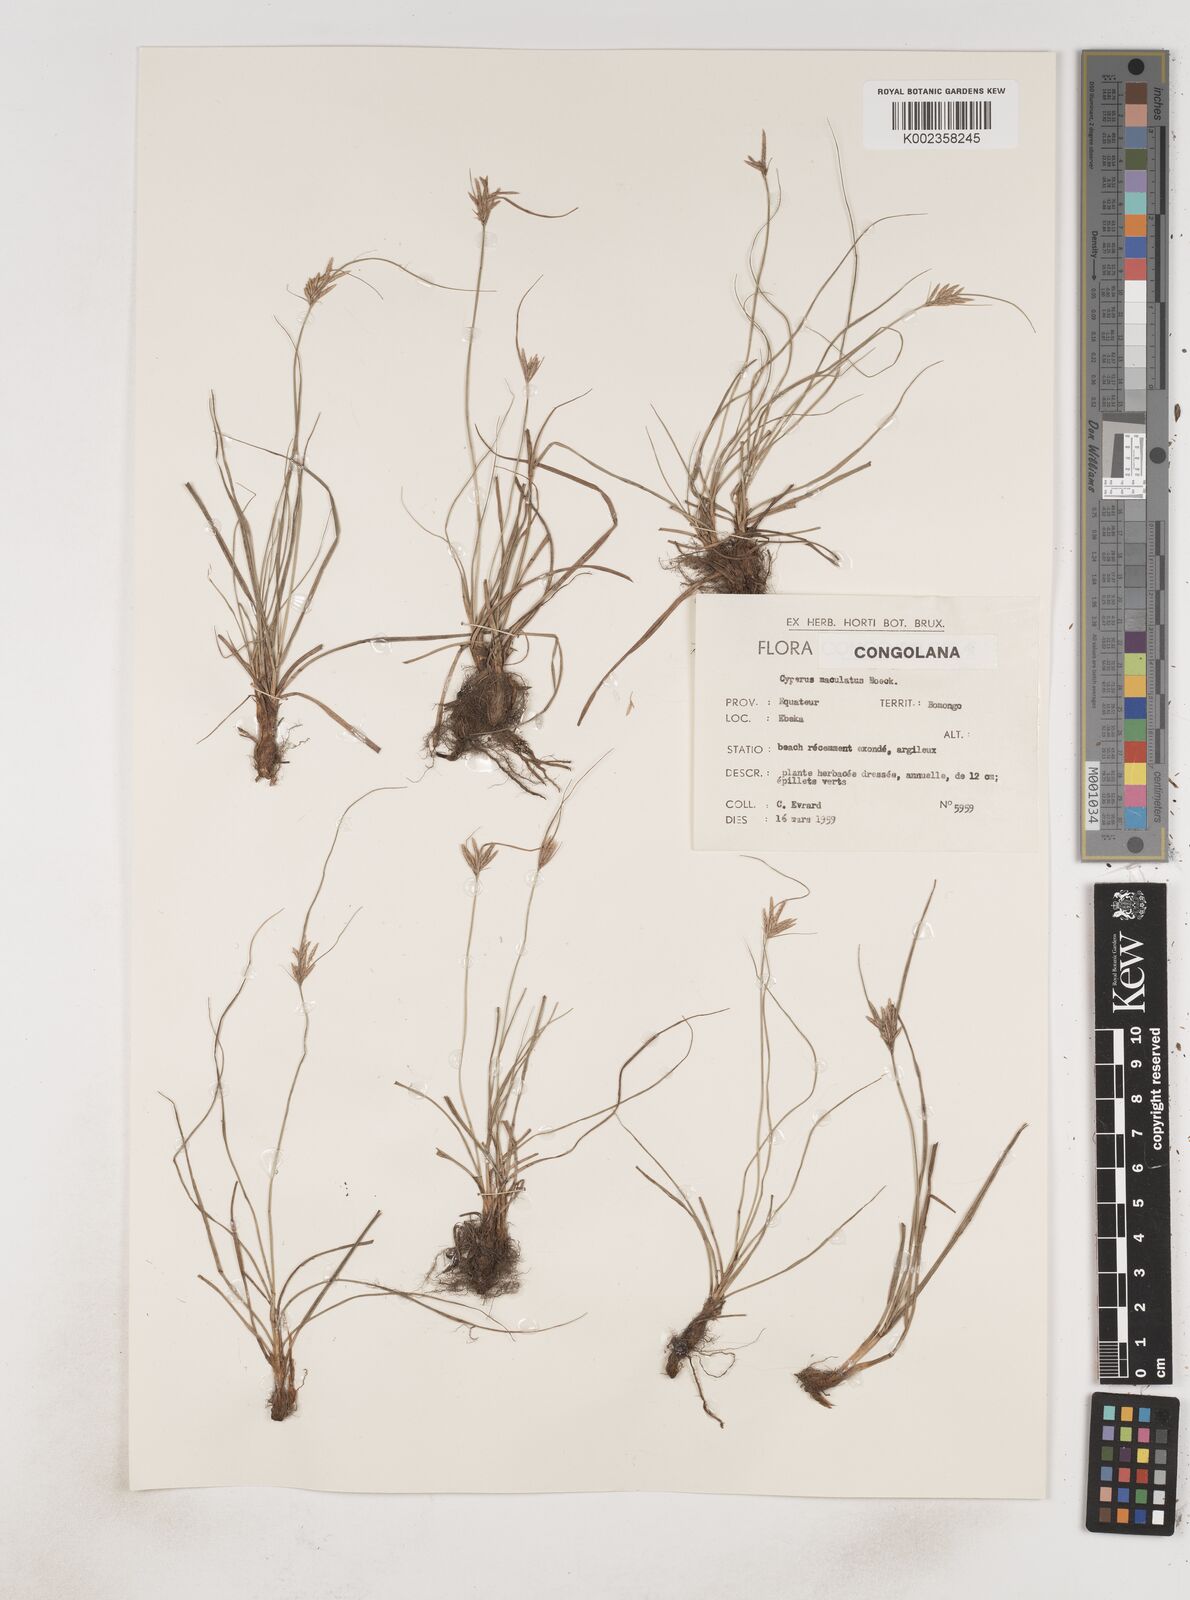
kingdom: Plantae
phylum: Tracheophyta
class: Liliopsida
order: Poales
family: Cyperaceae
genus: Cyperus
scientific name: Cyperus maculatus
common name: Maculated sedge
